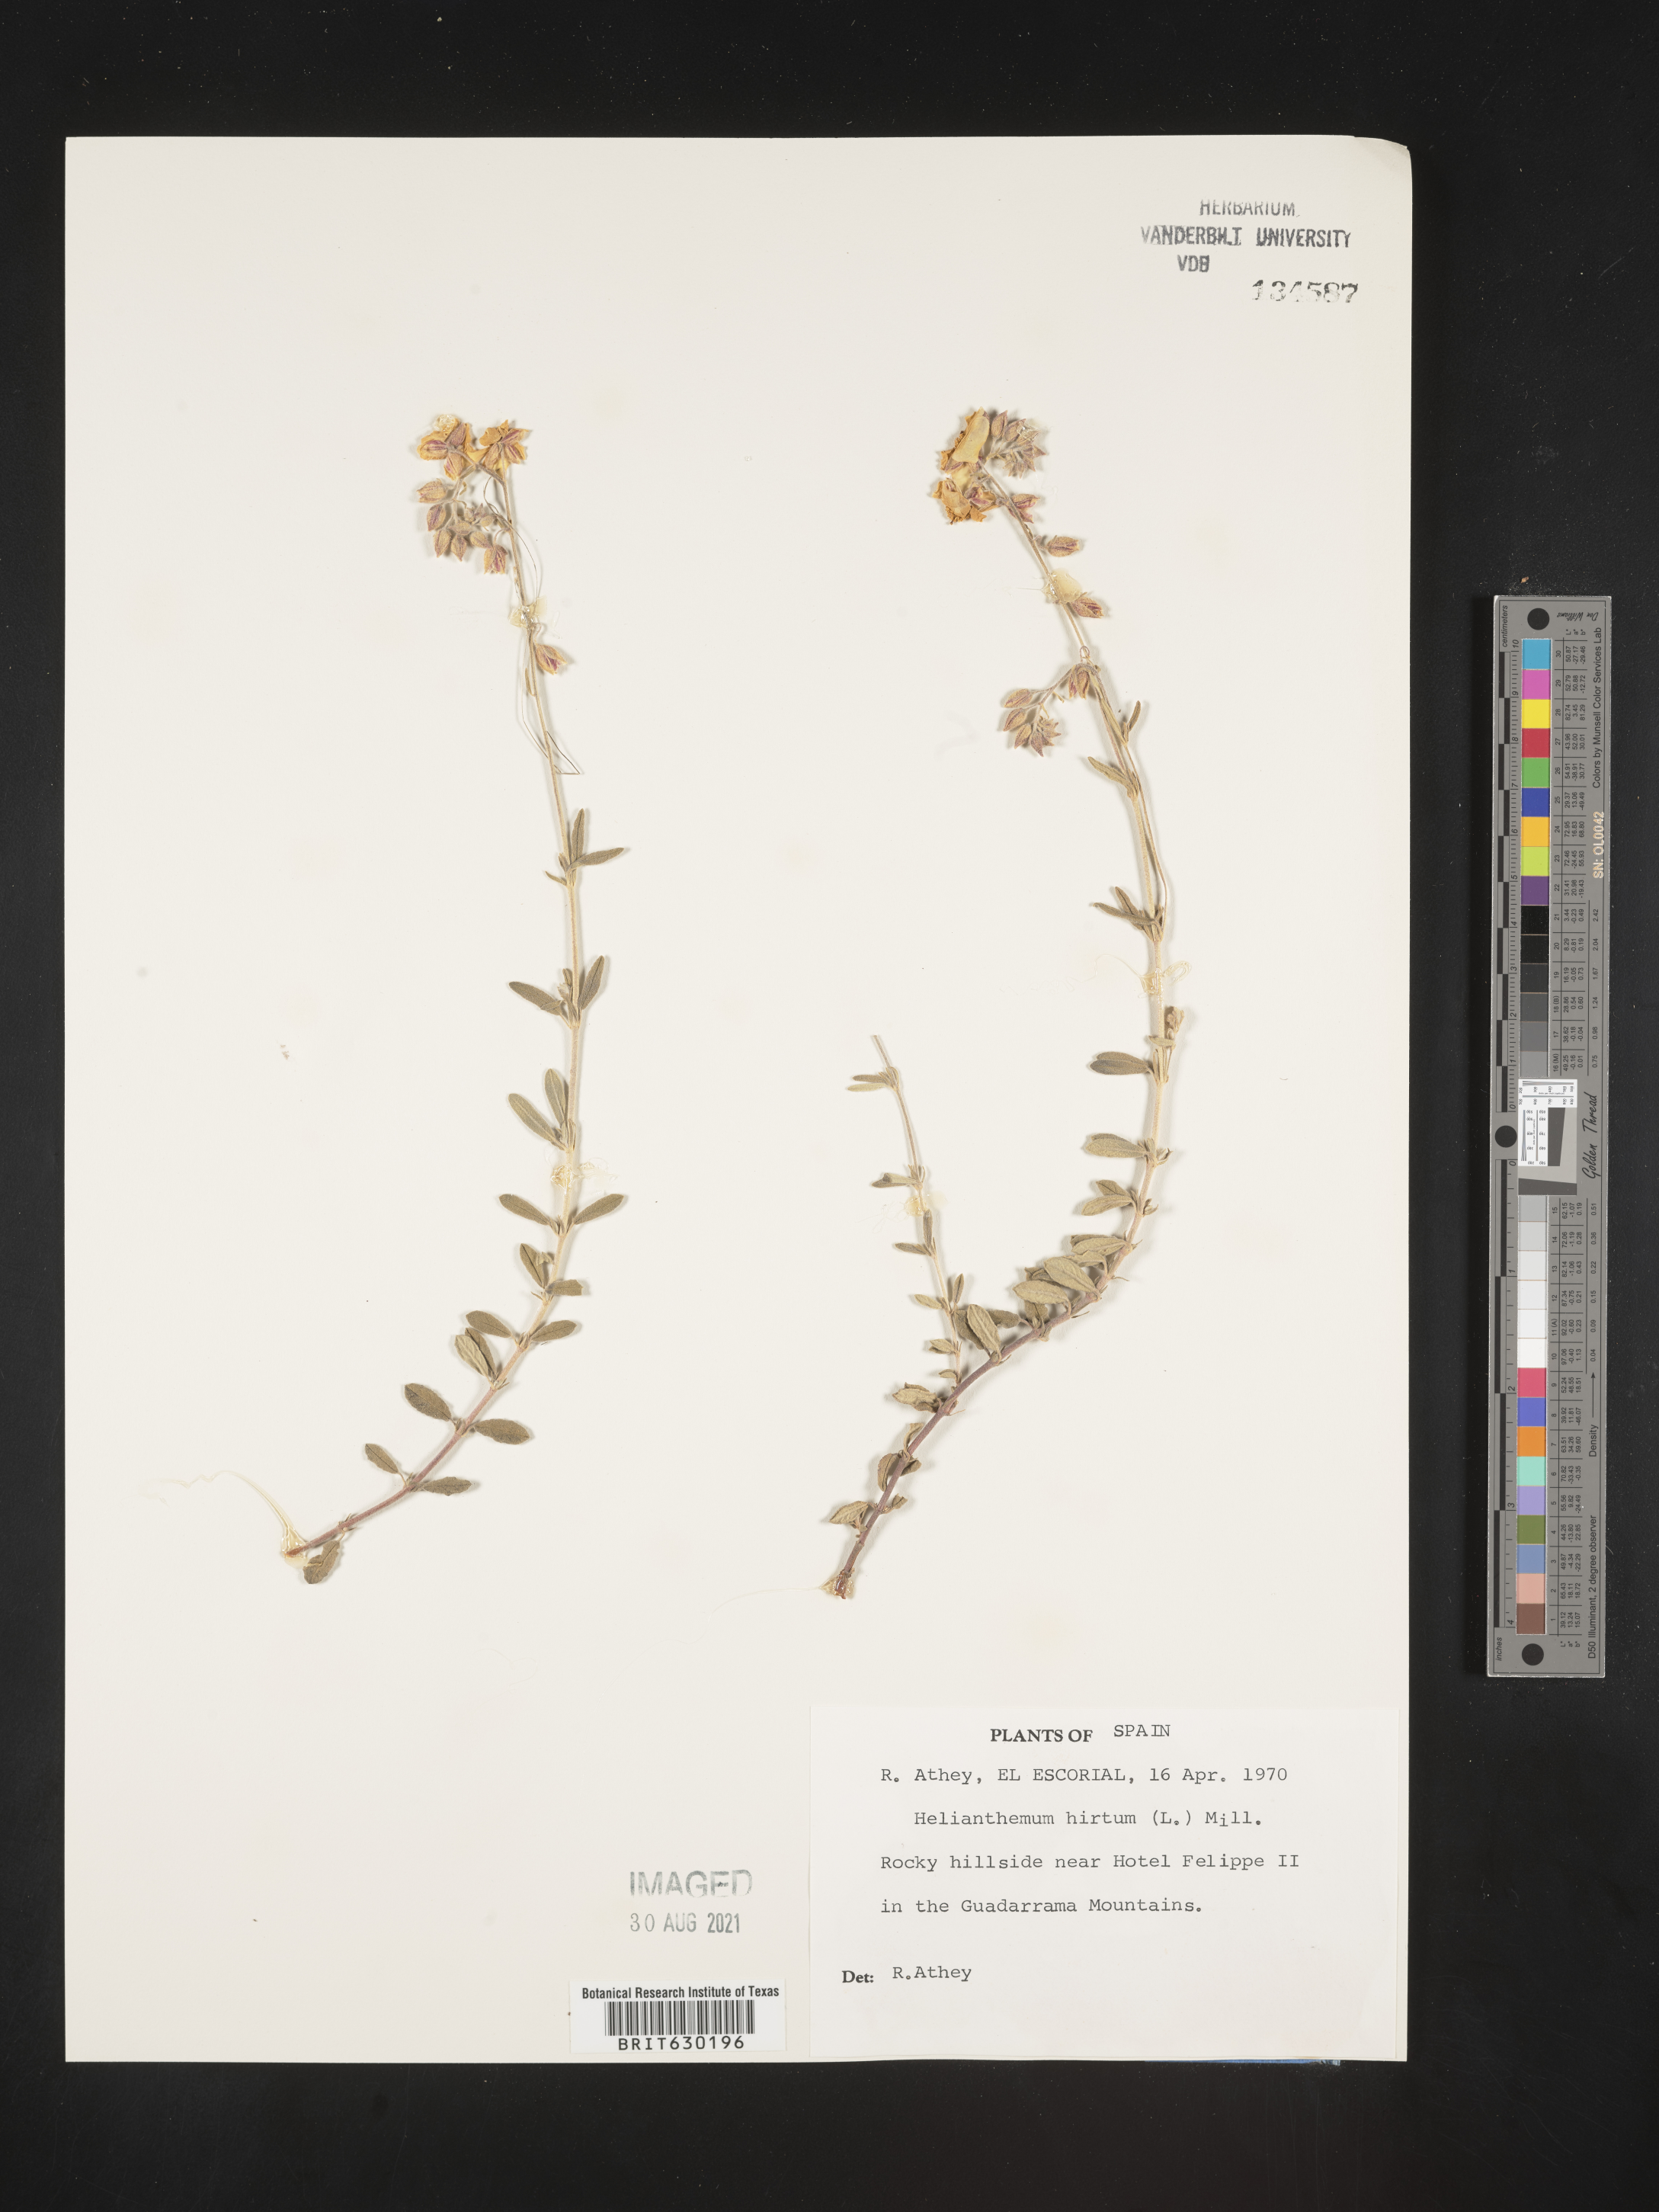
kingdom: Plantae
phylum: Tracheophyta
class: Magnoliopsida
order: Malvales
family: Cistaceae
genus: Helianthemum
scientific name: Helianthemum
